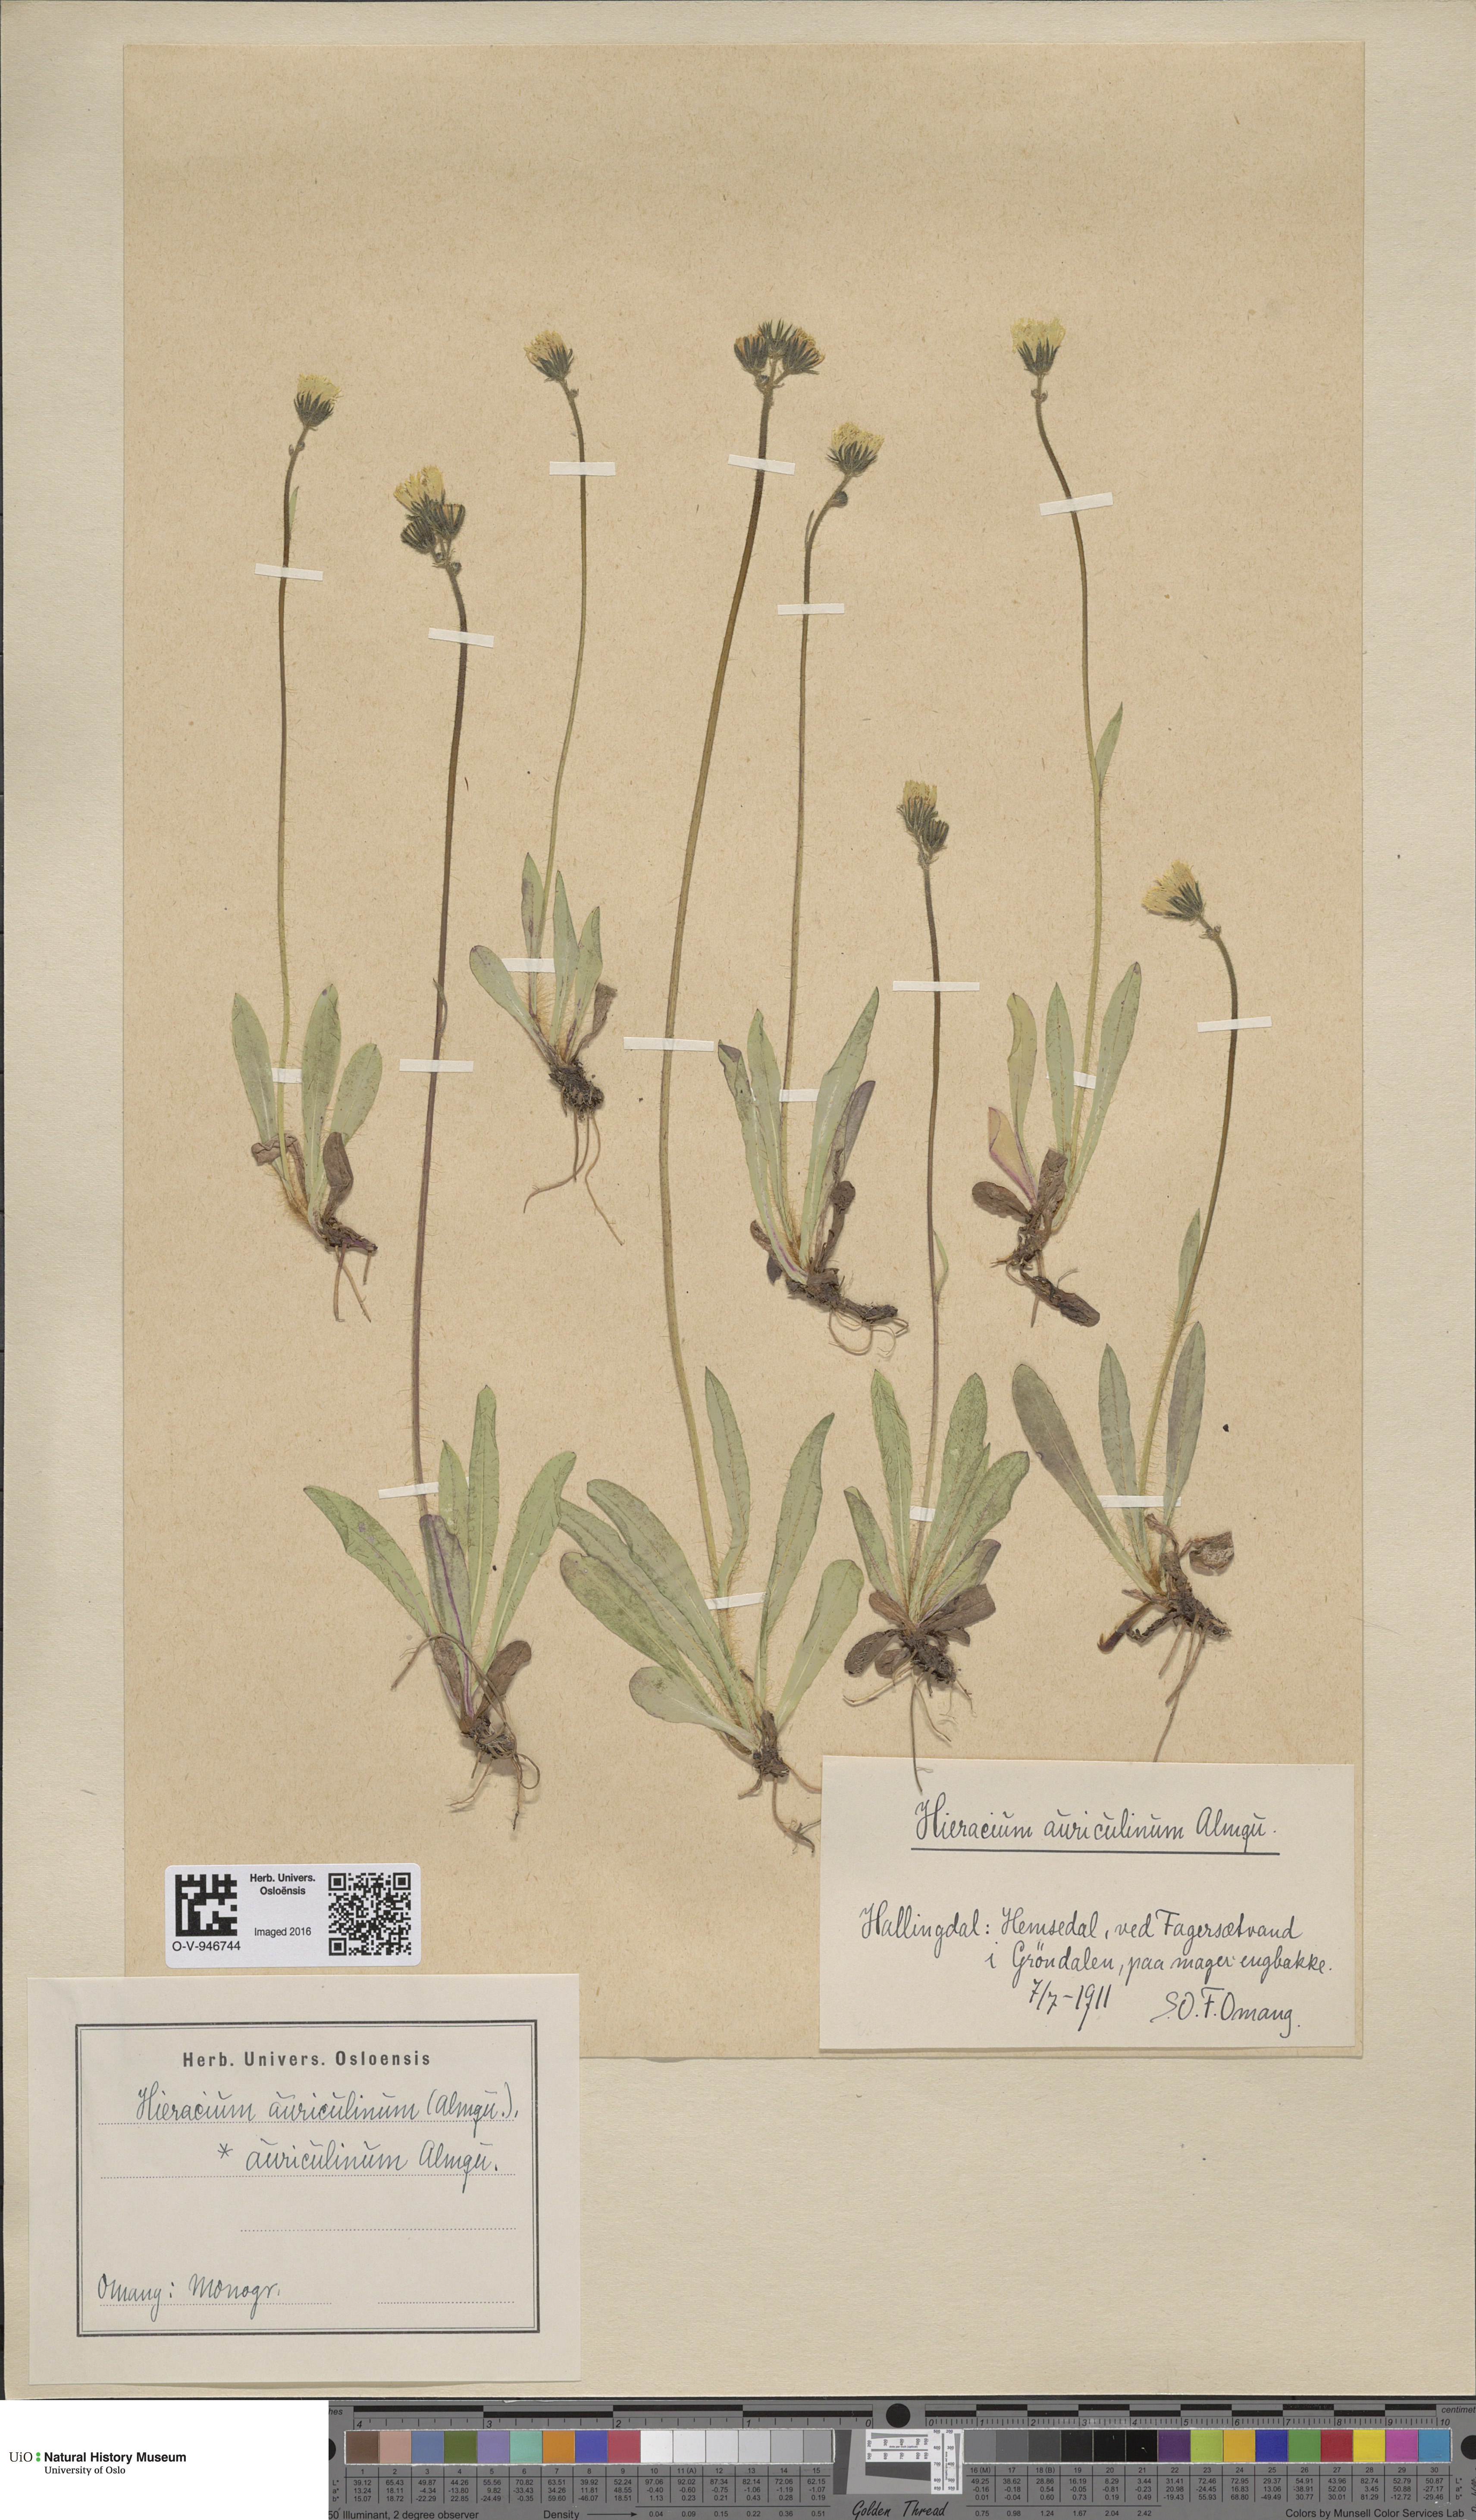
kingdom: Plantae
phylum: Tracheophyta
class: Magnoliopsida
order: Asterales
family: Asteraceae
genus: Pilosella
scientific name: Pilosella dubia
